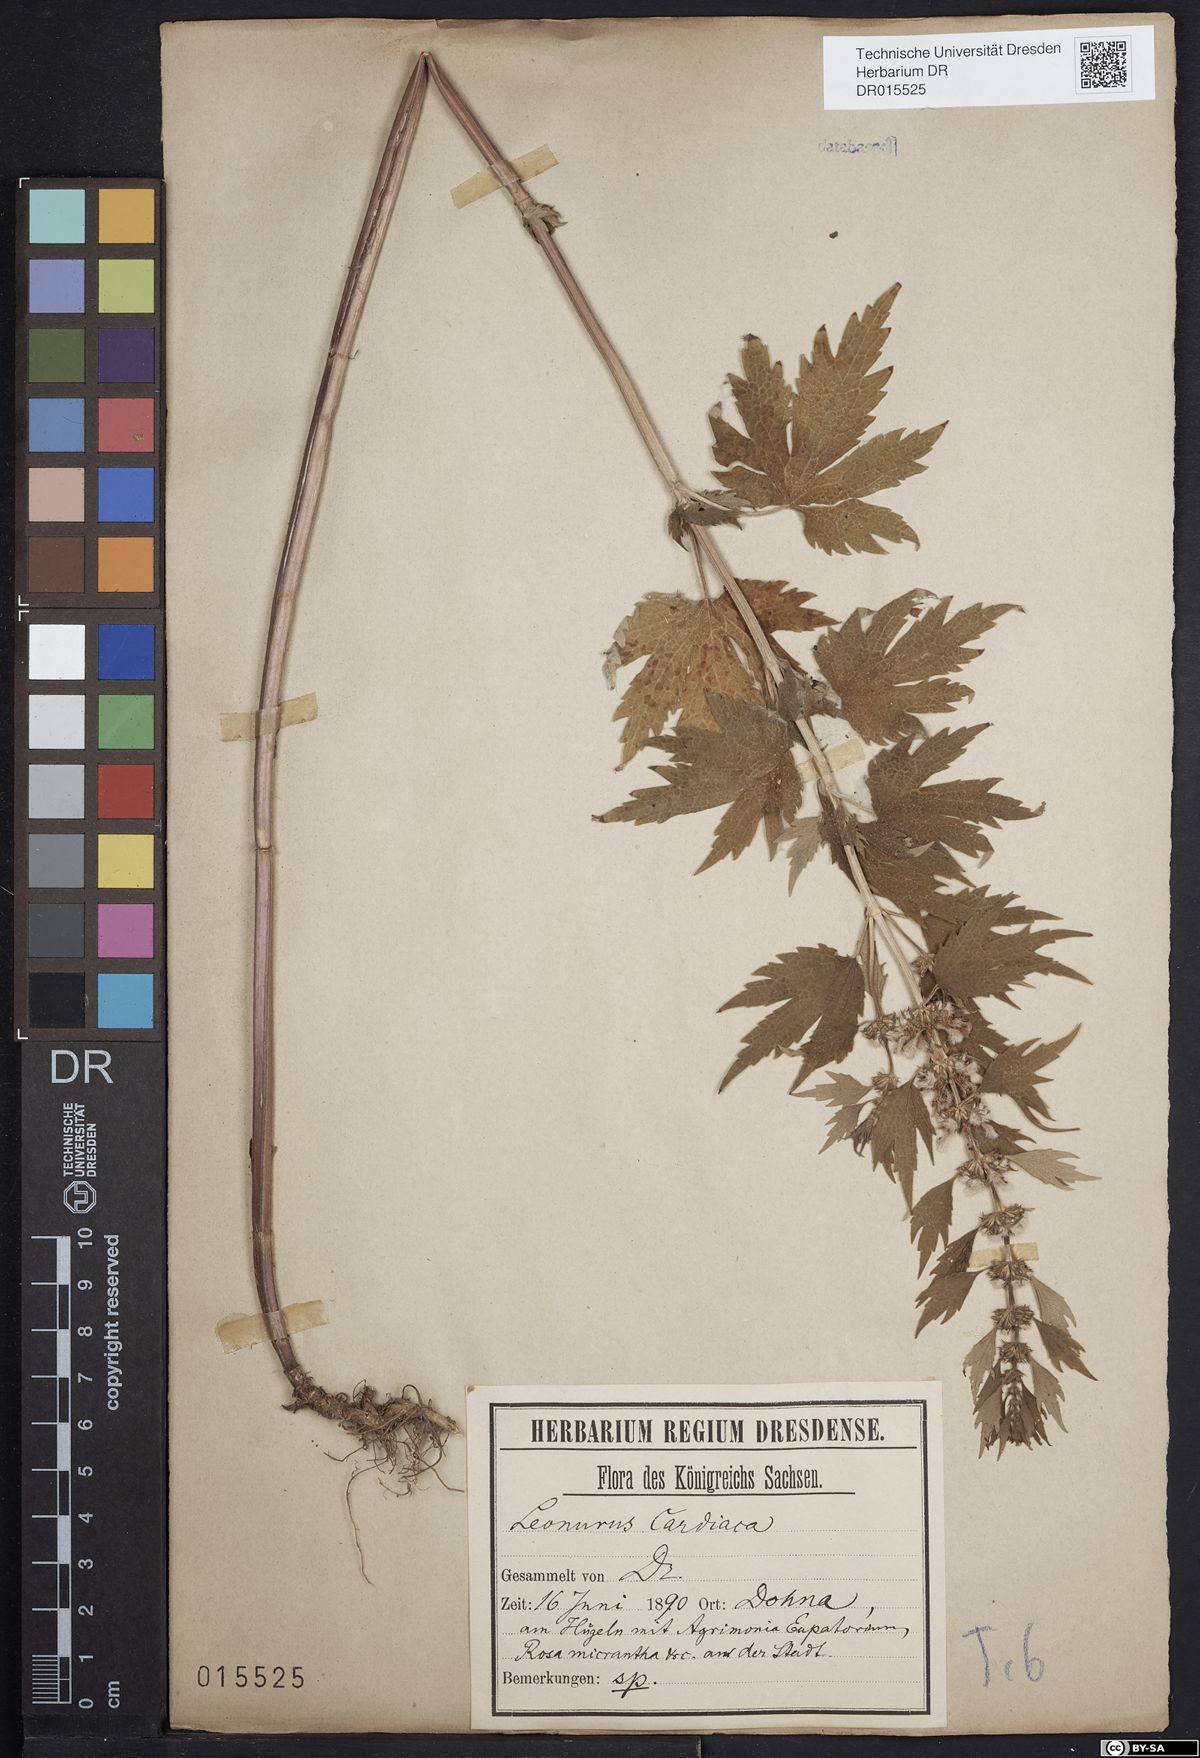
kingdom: Plantae
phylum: Tracheophyta
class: Magnoliopsida
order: Lamiales
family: Lamiaceae
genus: Leonurus
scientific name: Leonurus cardiaca
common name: Motherwort
